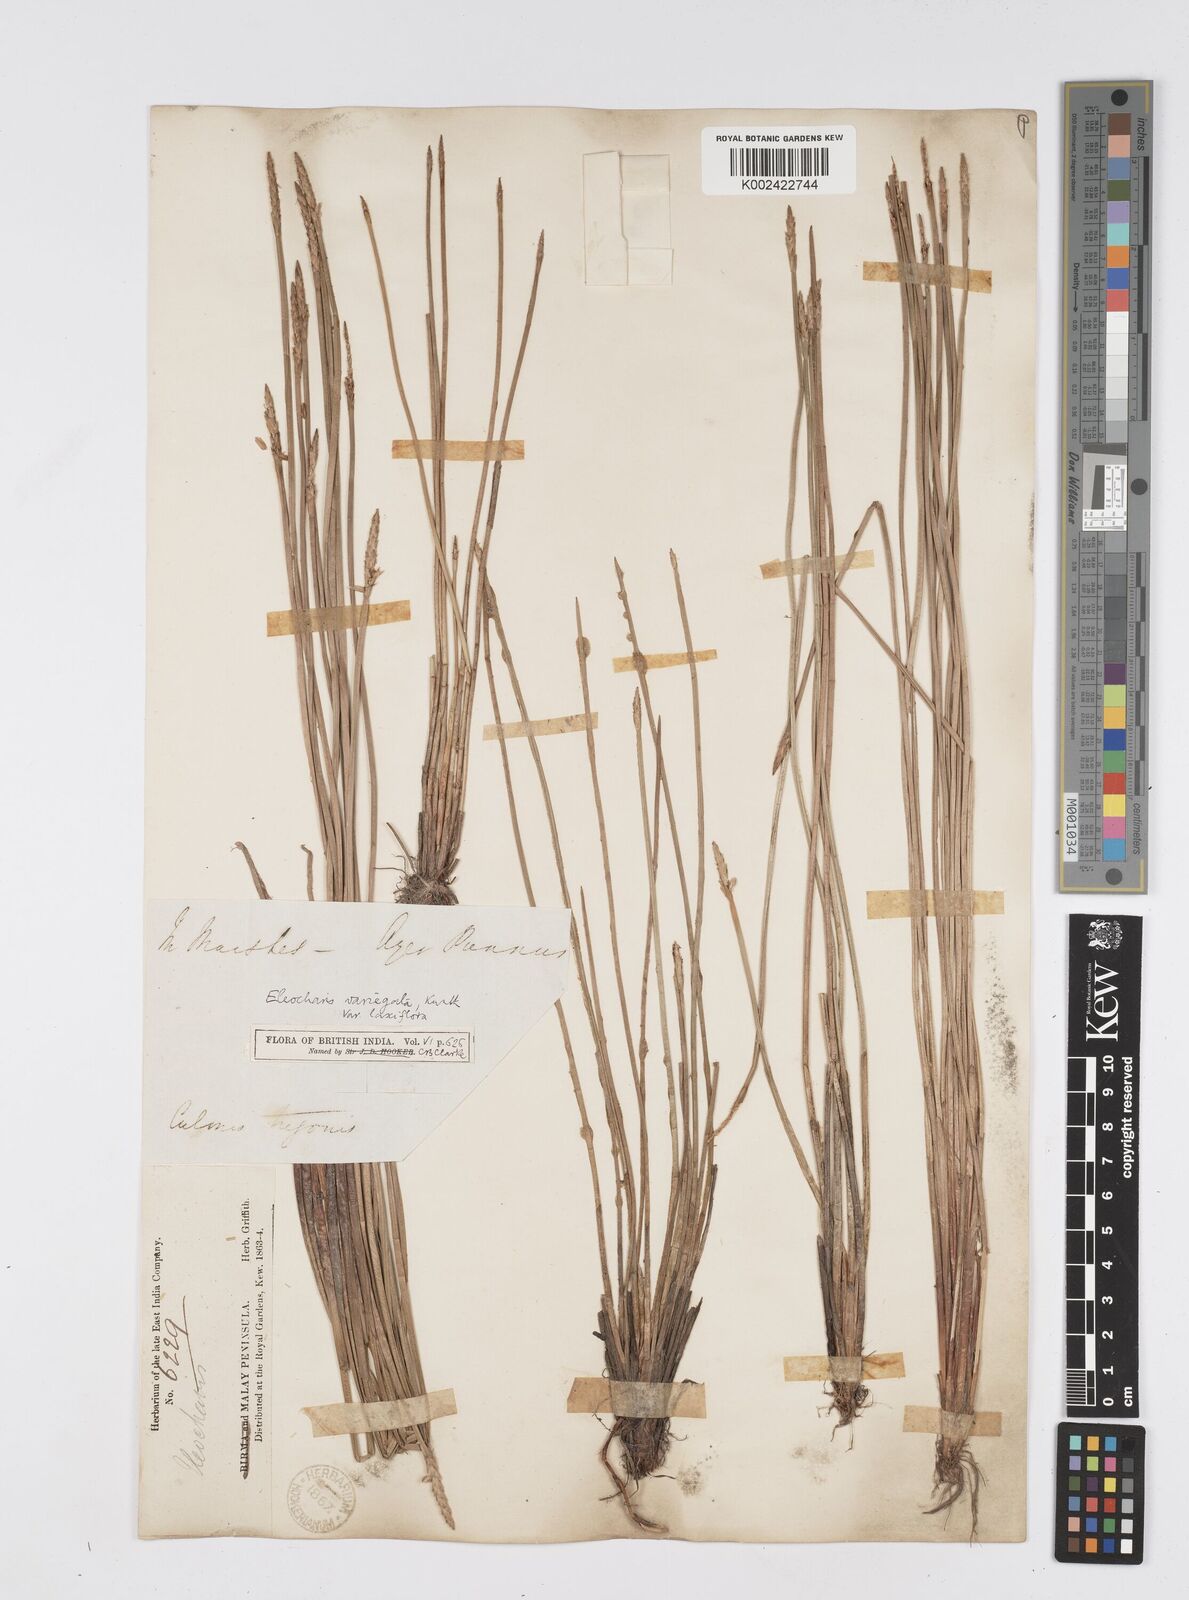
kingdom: Plantae
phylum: Tracheophyta
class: Liliopsida
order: Poales
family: Cyperaceae
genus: Eleocharis
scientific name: Eleocharis ochrostachys
